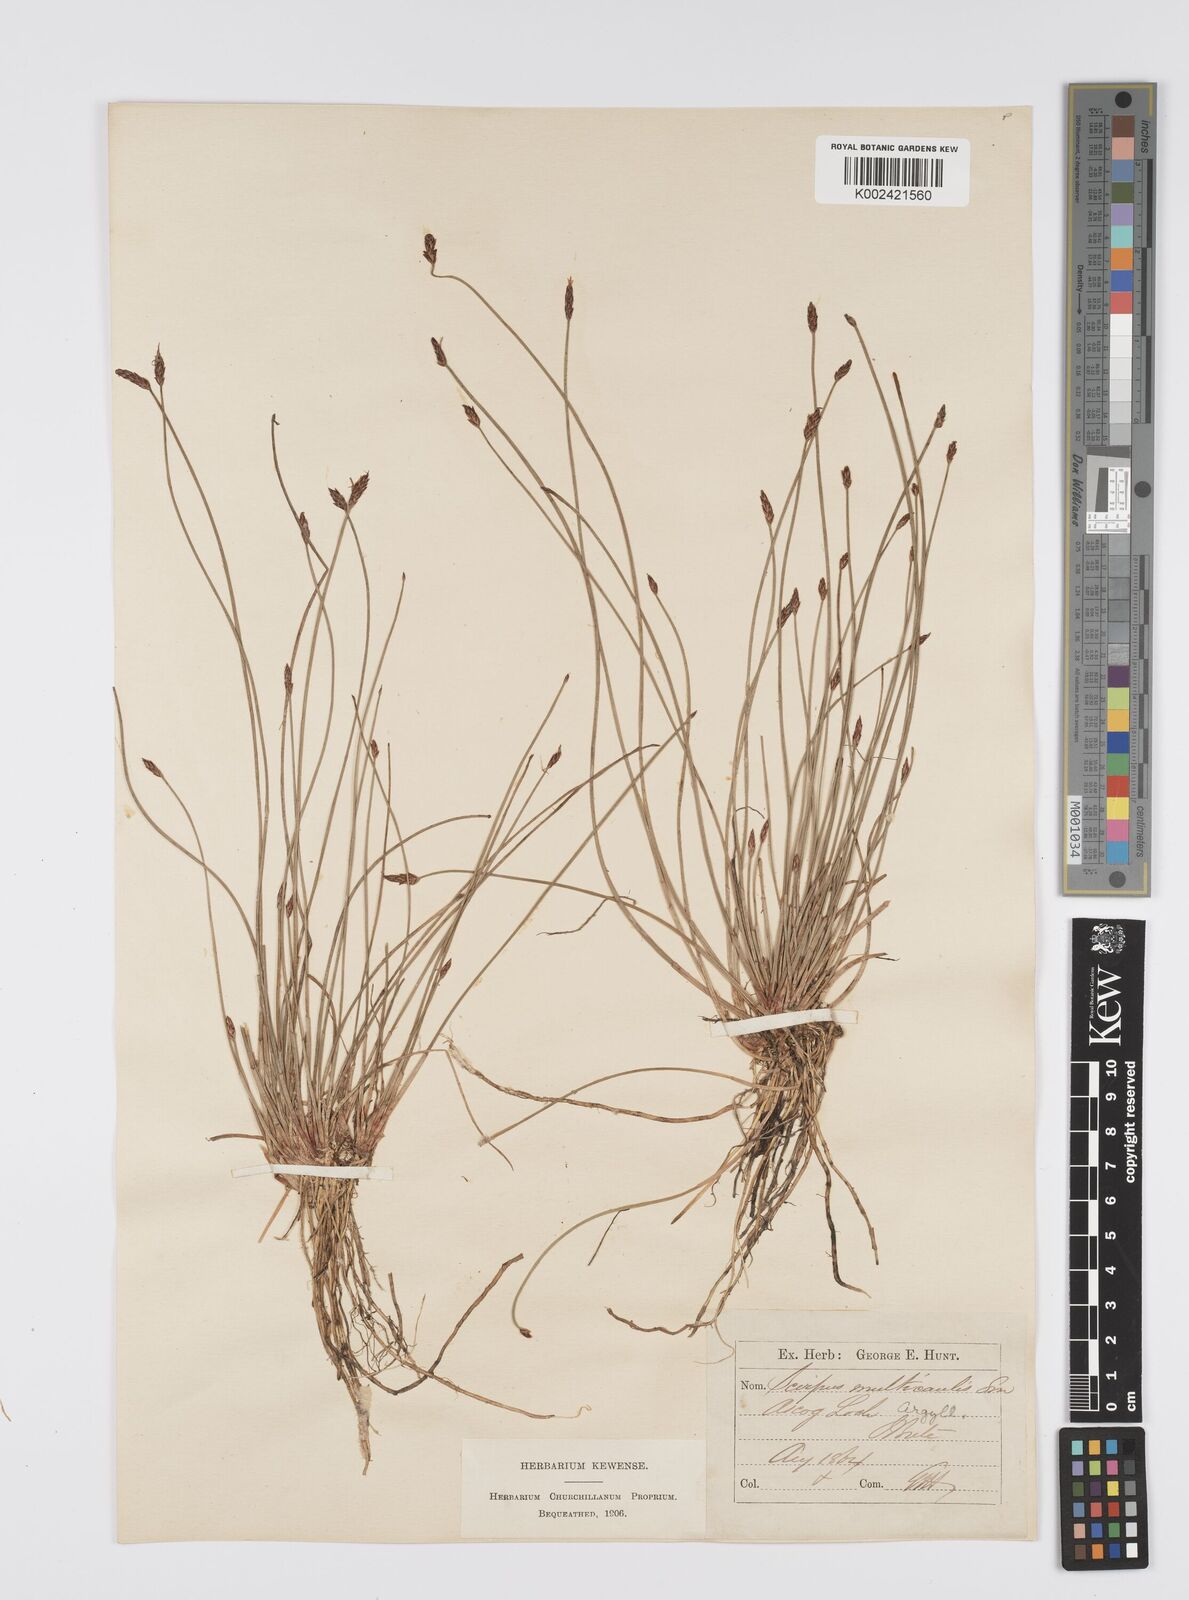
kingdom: Plantae
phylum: Tracheophyta
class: Liliopsida
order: Poales
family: Cyperaceae
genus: Eleocharis
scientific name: Eleocharis multicaulis
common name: Many-stalked spike-rush
